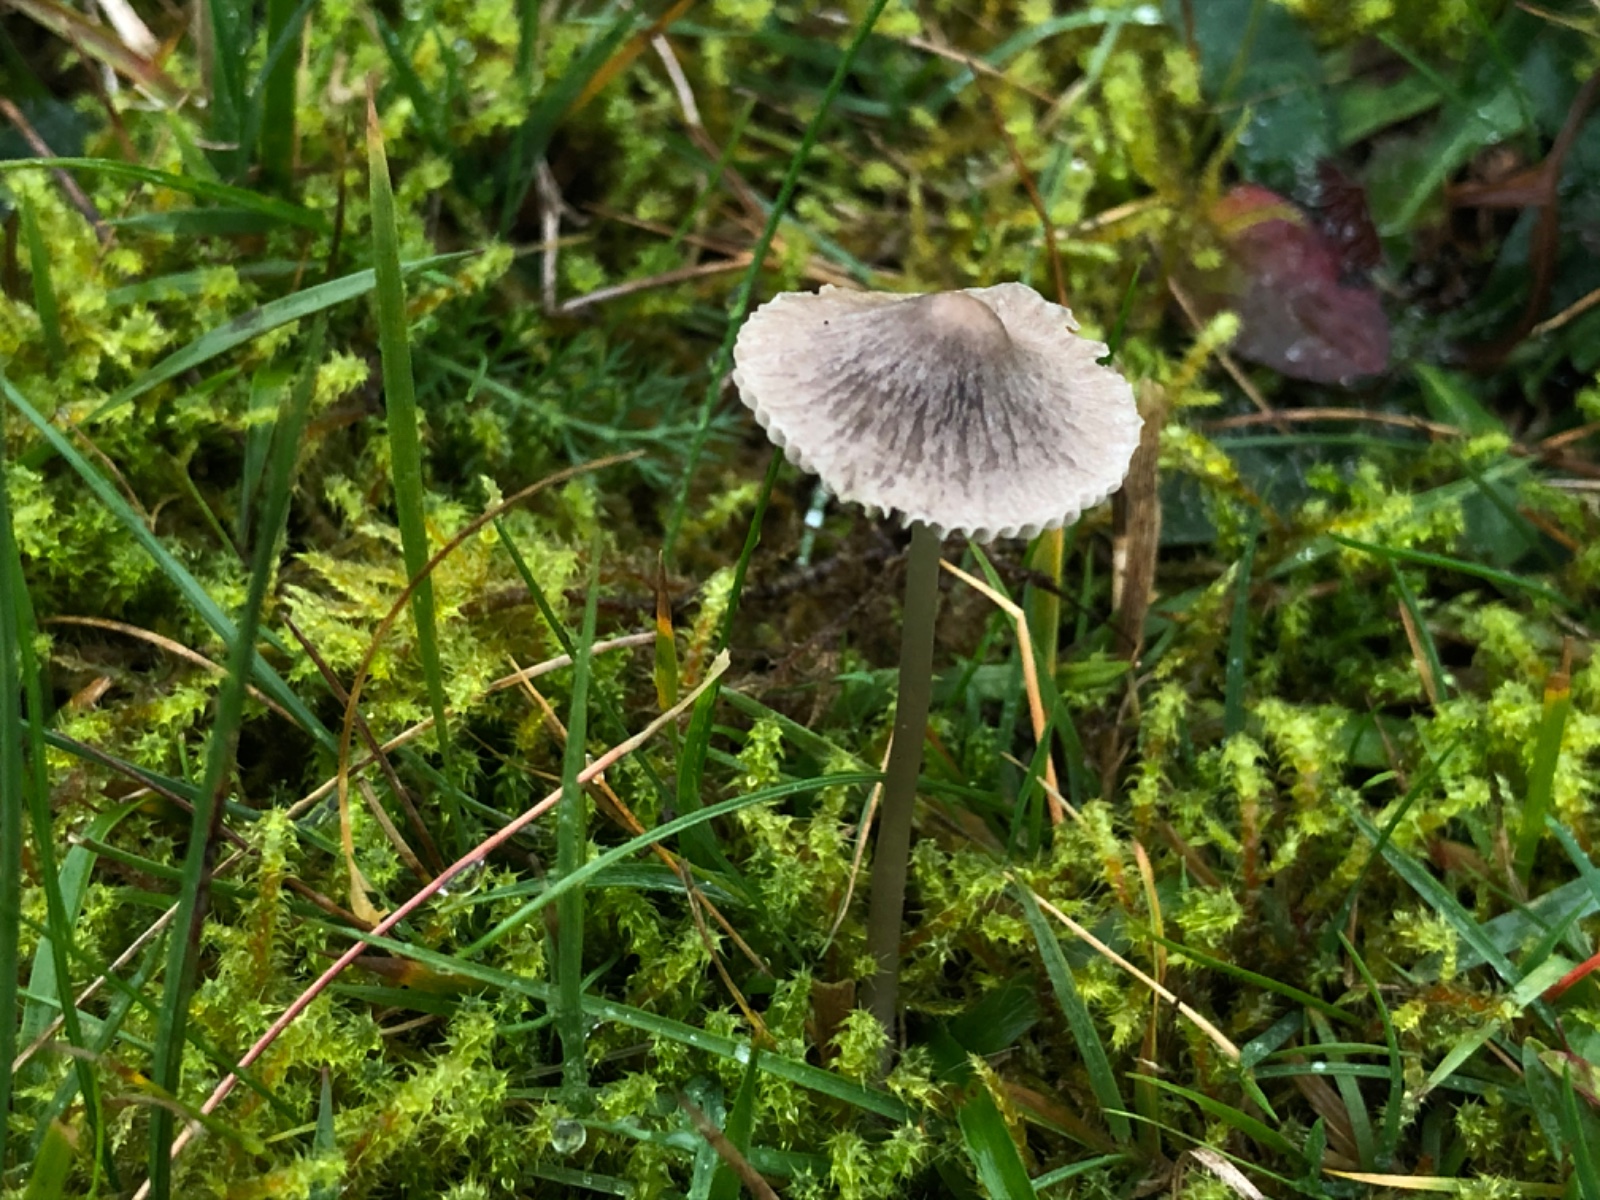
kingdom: Fungi
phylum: Basidiomycota
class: Agaricomycetes
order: Agaricales
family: Mycenaceae
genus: Mycena
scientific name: Mycena aetites
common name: plæne-huesvamp
